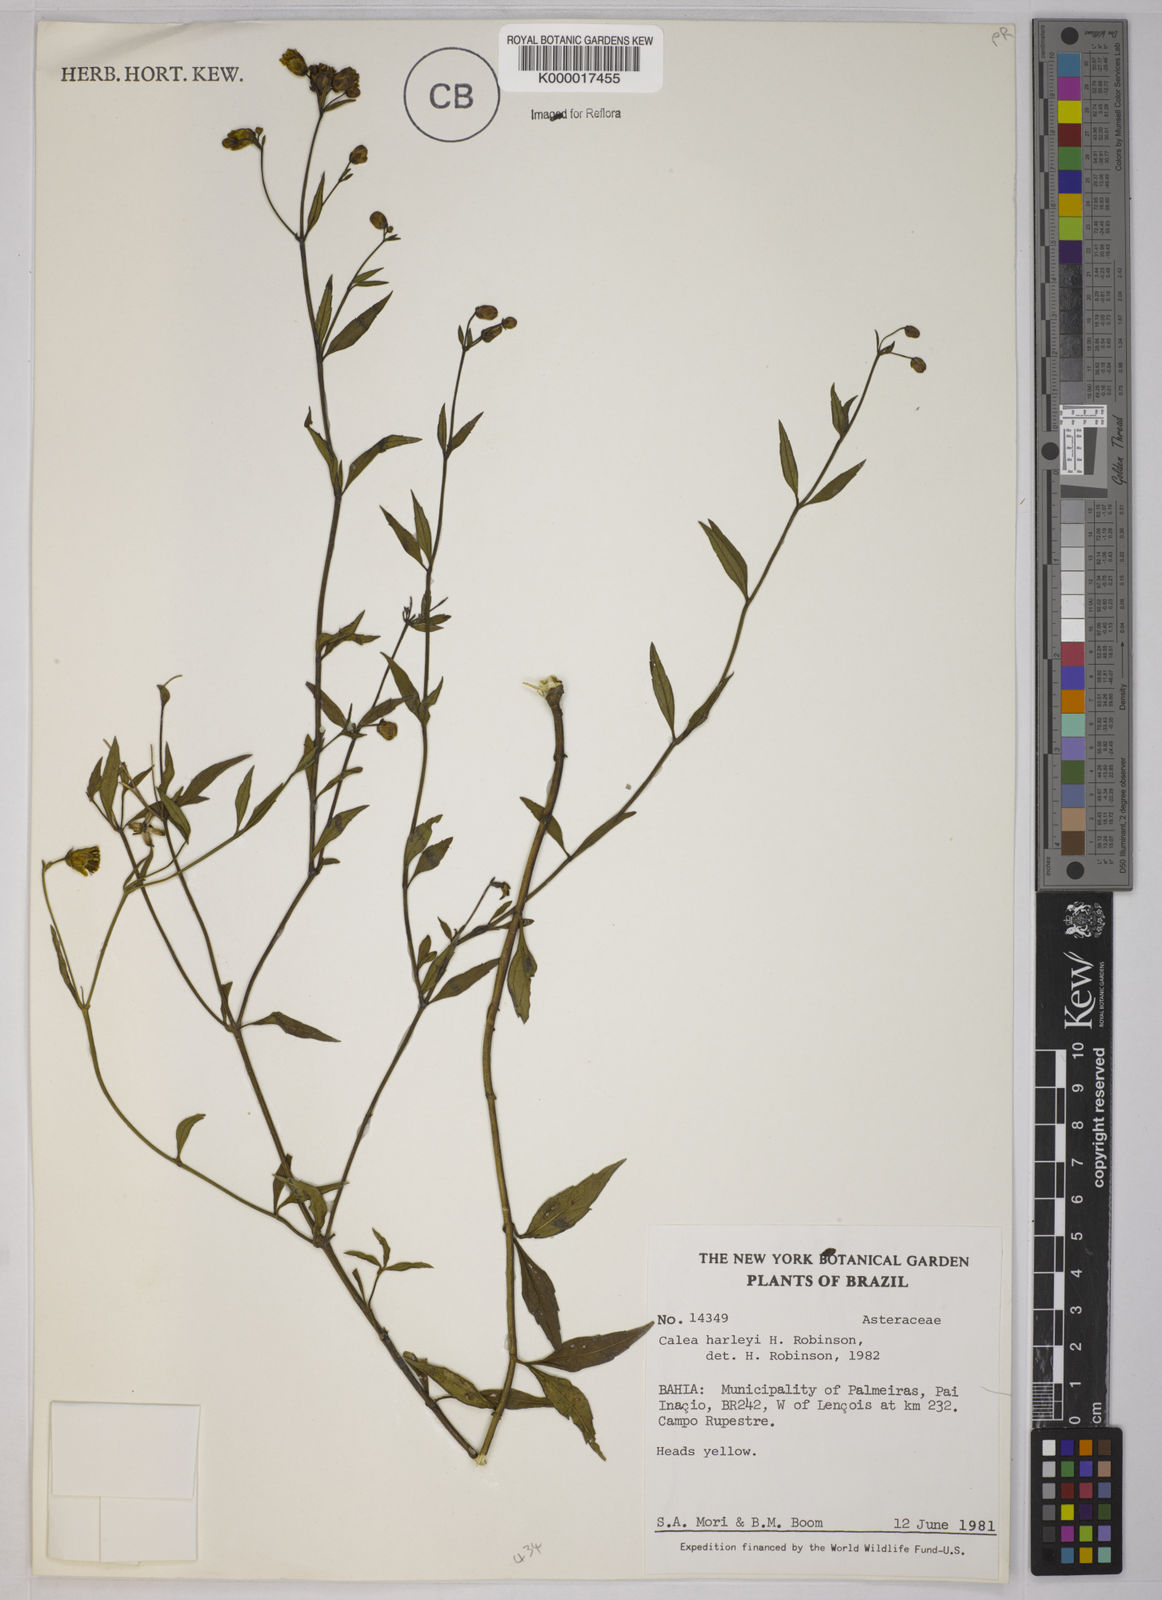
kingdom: Plantae
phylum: Tracheophyta
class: Magnoliopsida
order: Asterales
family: Asteraceae
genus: Calea
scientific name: Calea harleyi
